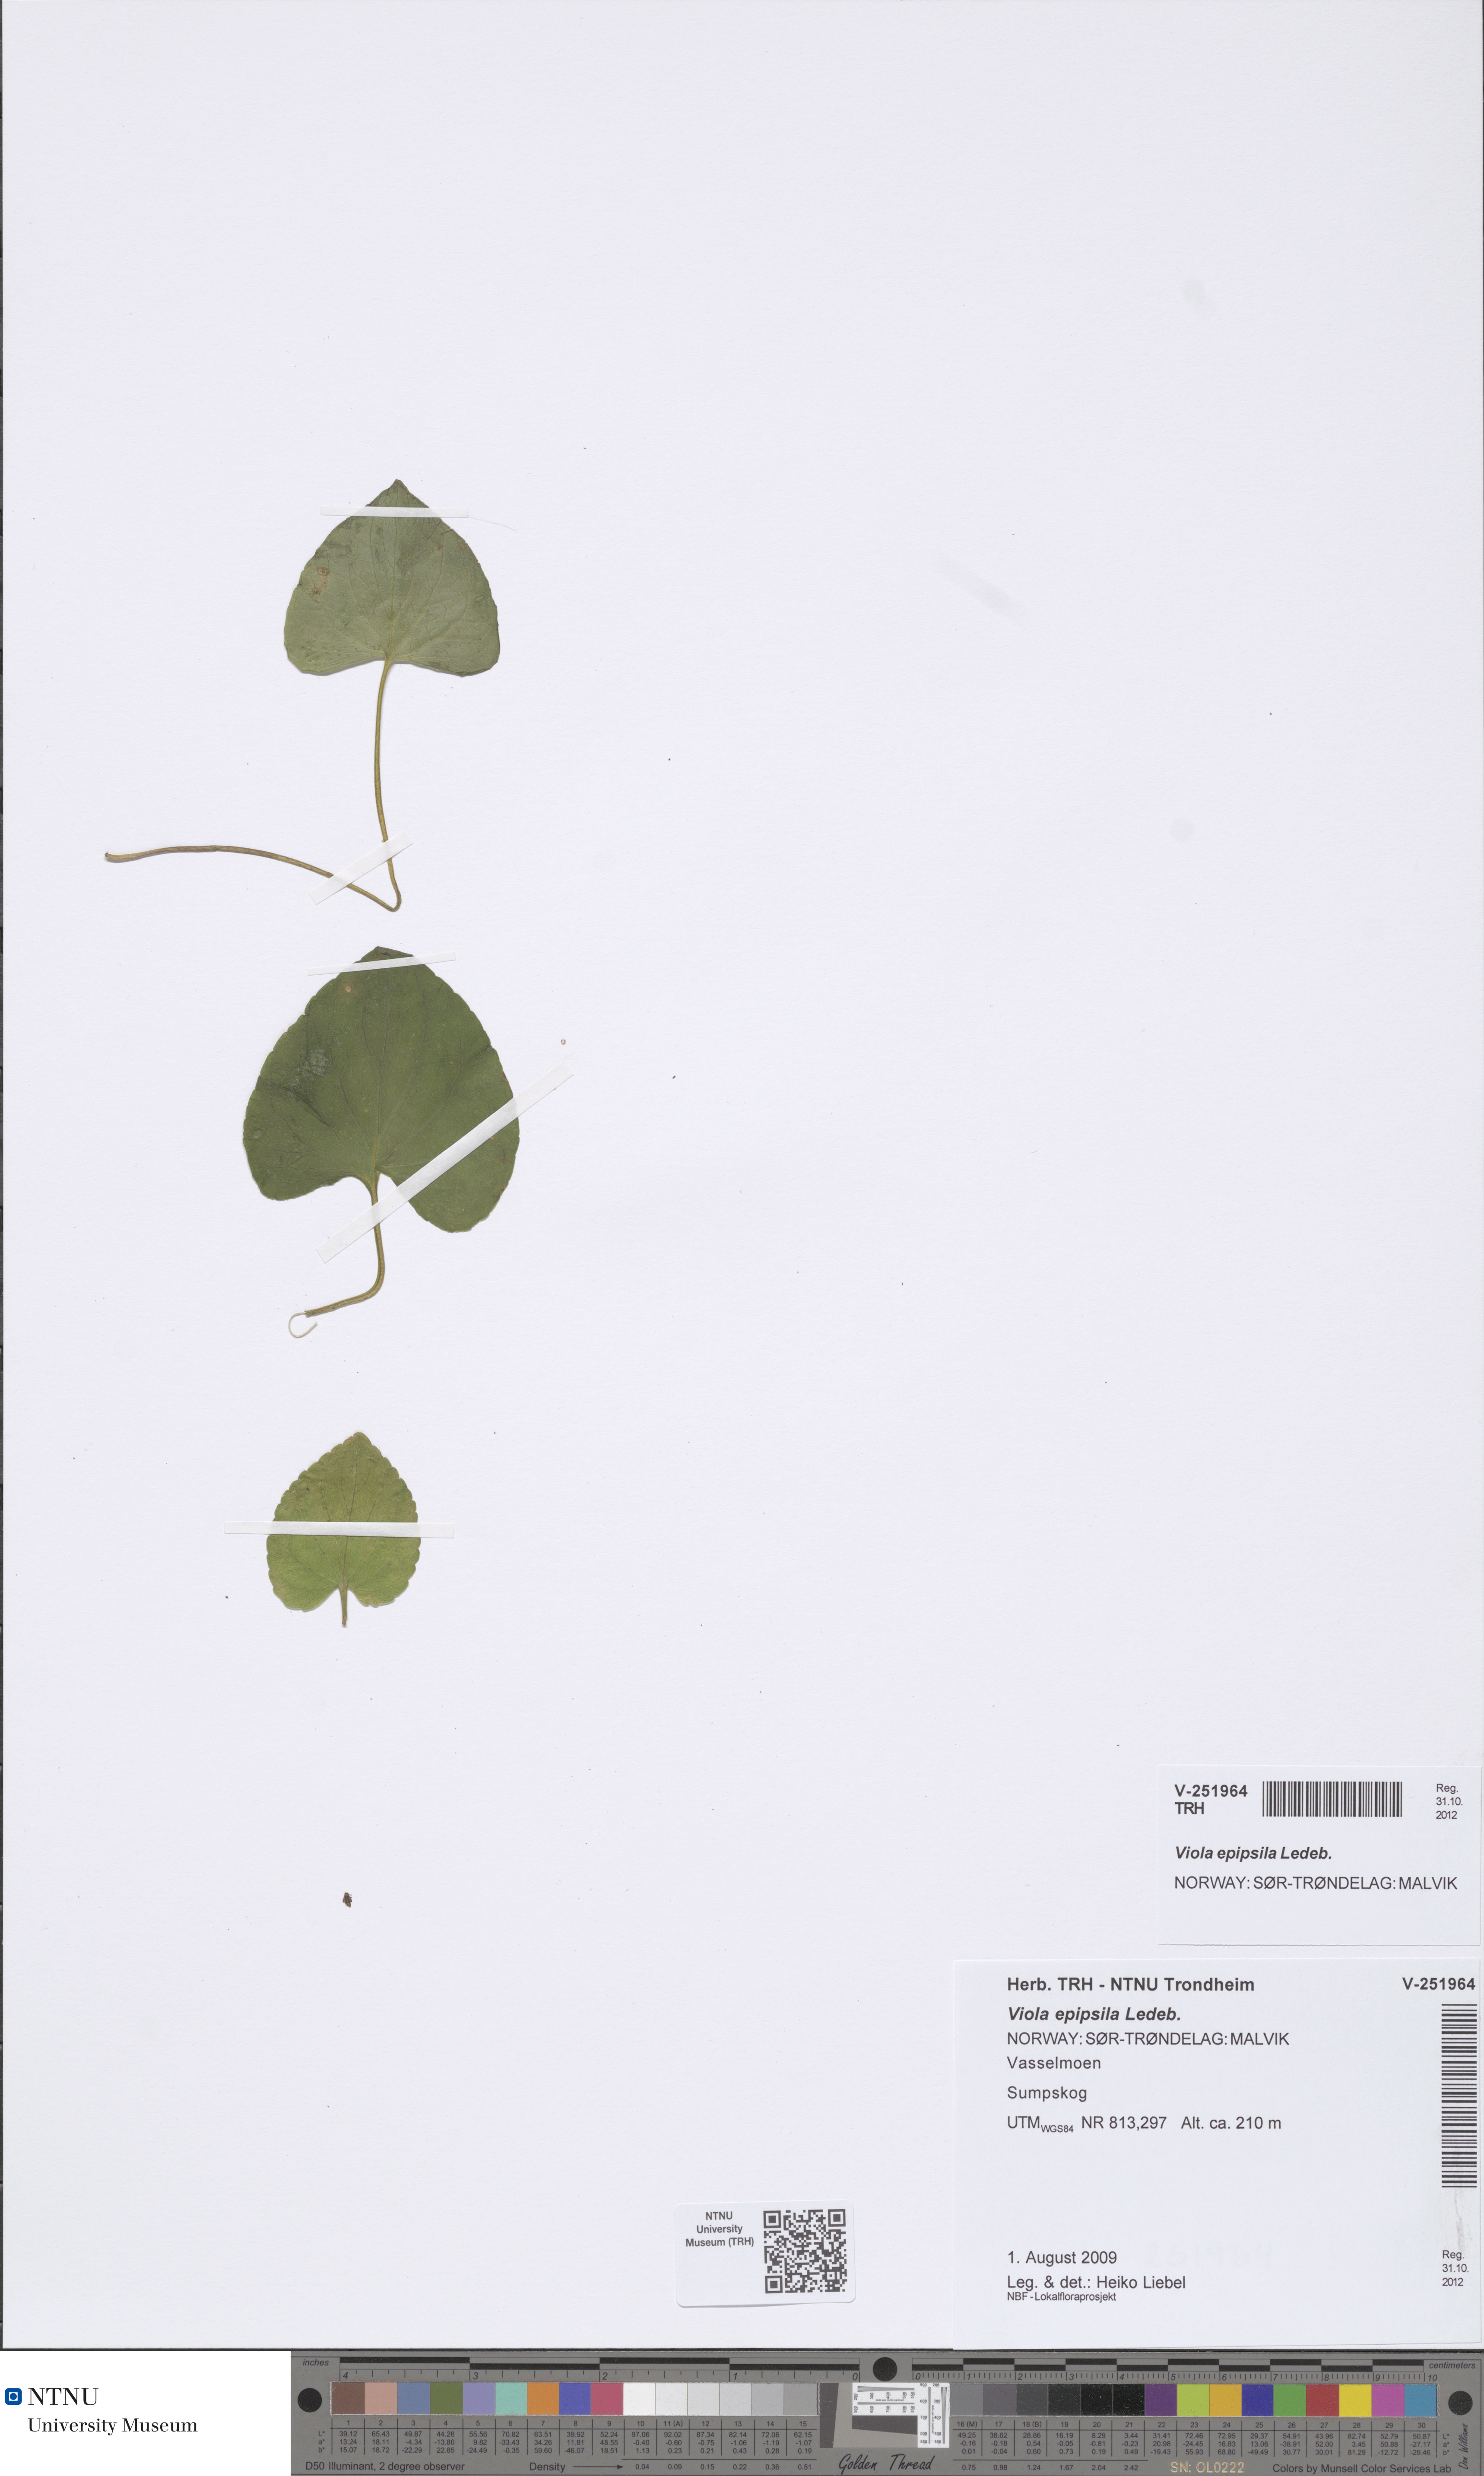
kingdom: Plantae
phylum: Tracheophyta
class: Magnoliopsida
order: Malpighiales
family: Violaceae
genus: Viola
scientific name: Viola epipsila
